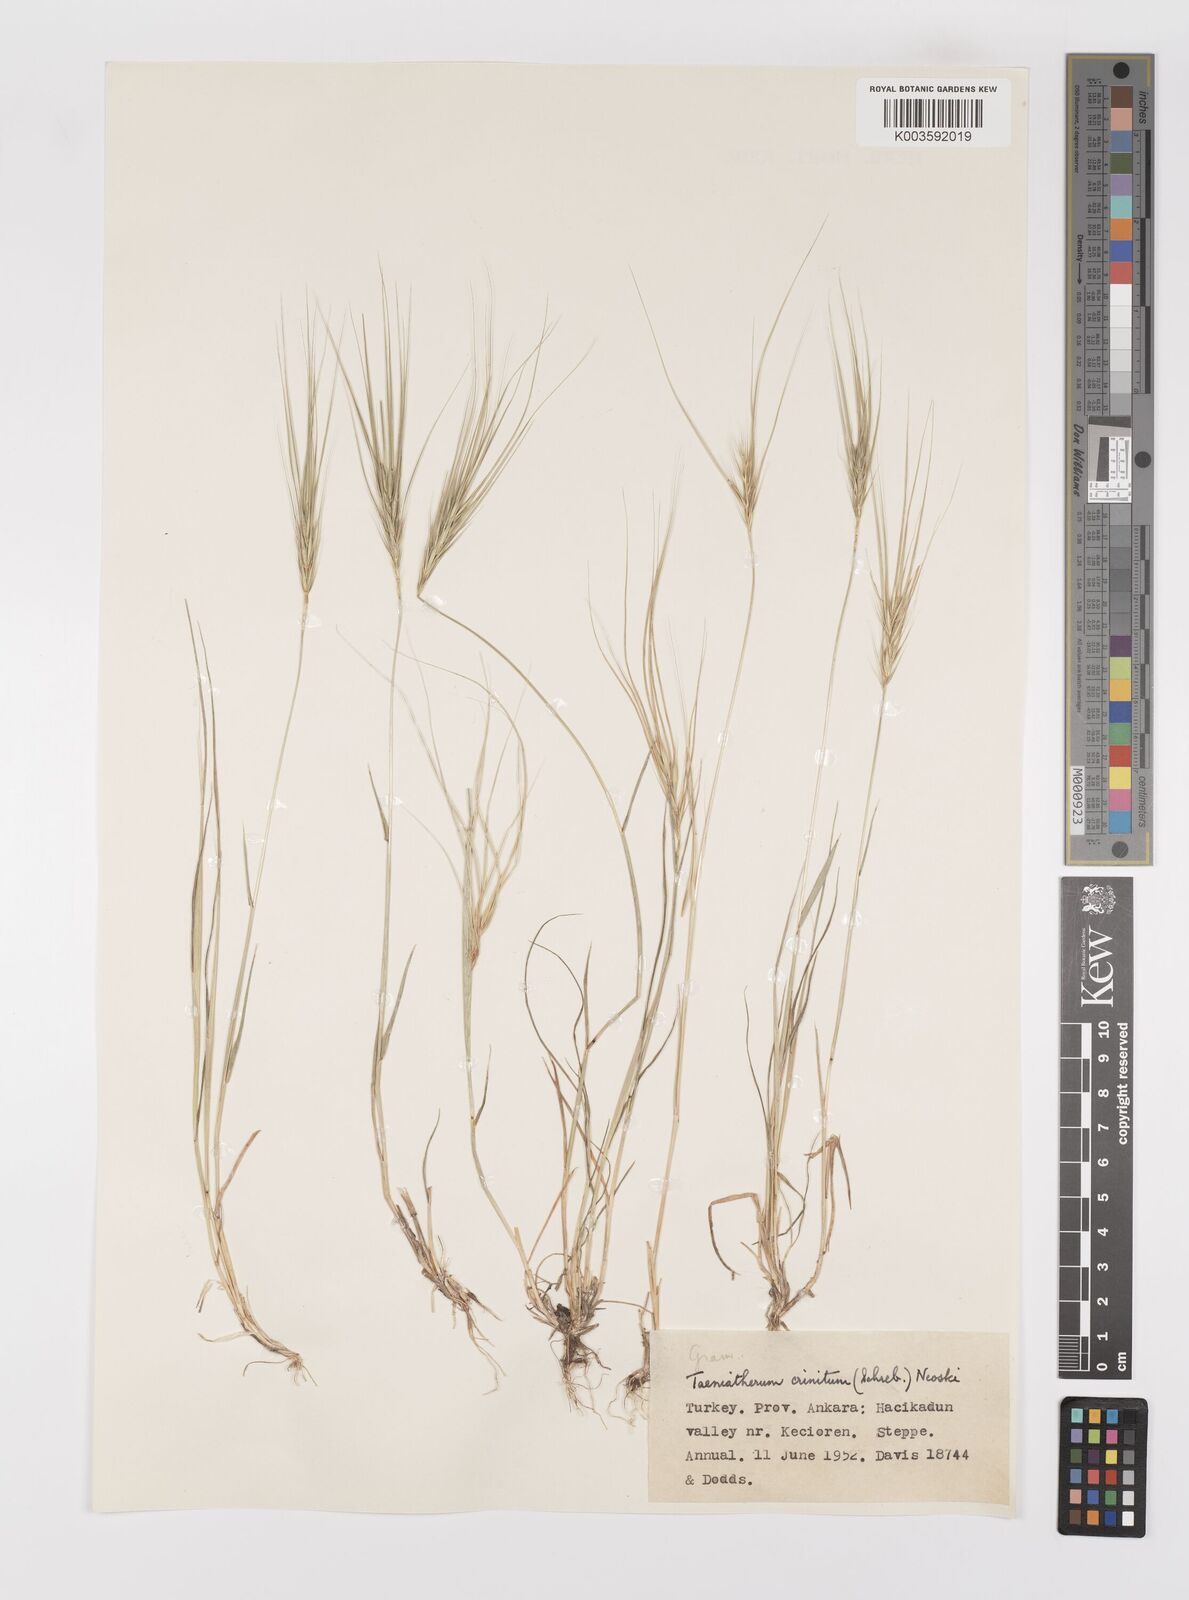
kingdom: Plantae
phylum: Tracheophyta
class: Liliopsida
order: Poales
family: Poaceae
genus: Taeniatherum
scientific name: Taeniatherum caput-medusae
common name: Medusahead
